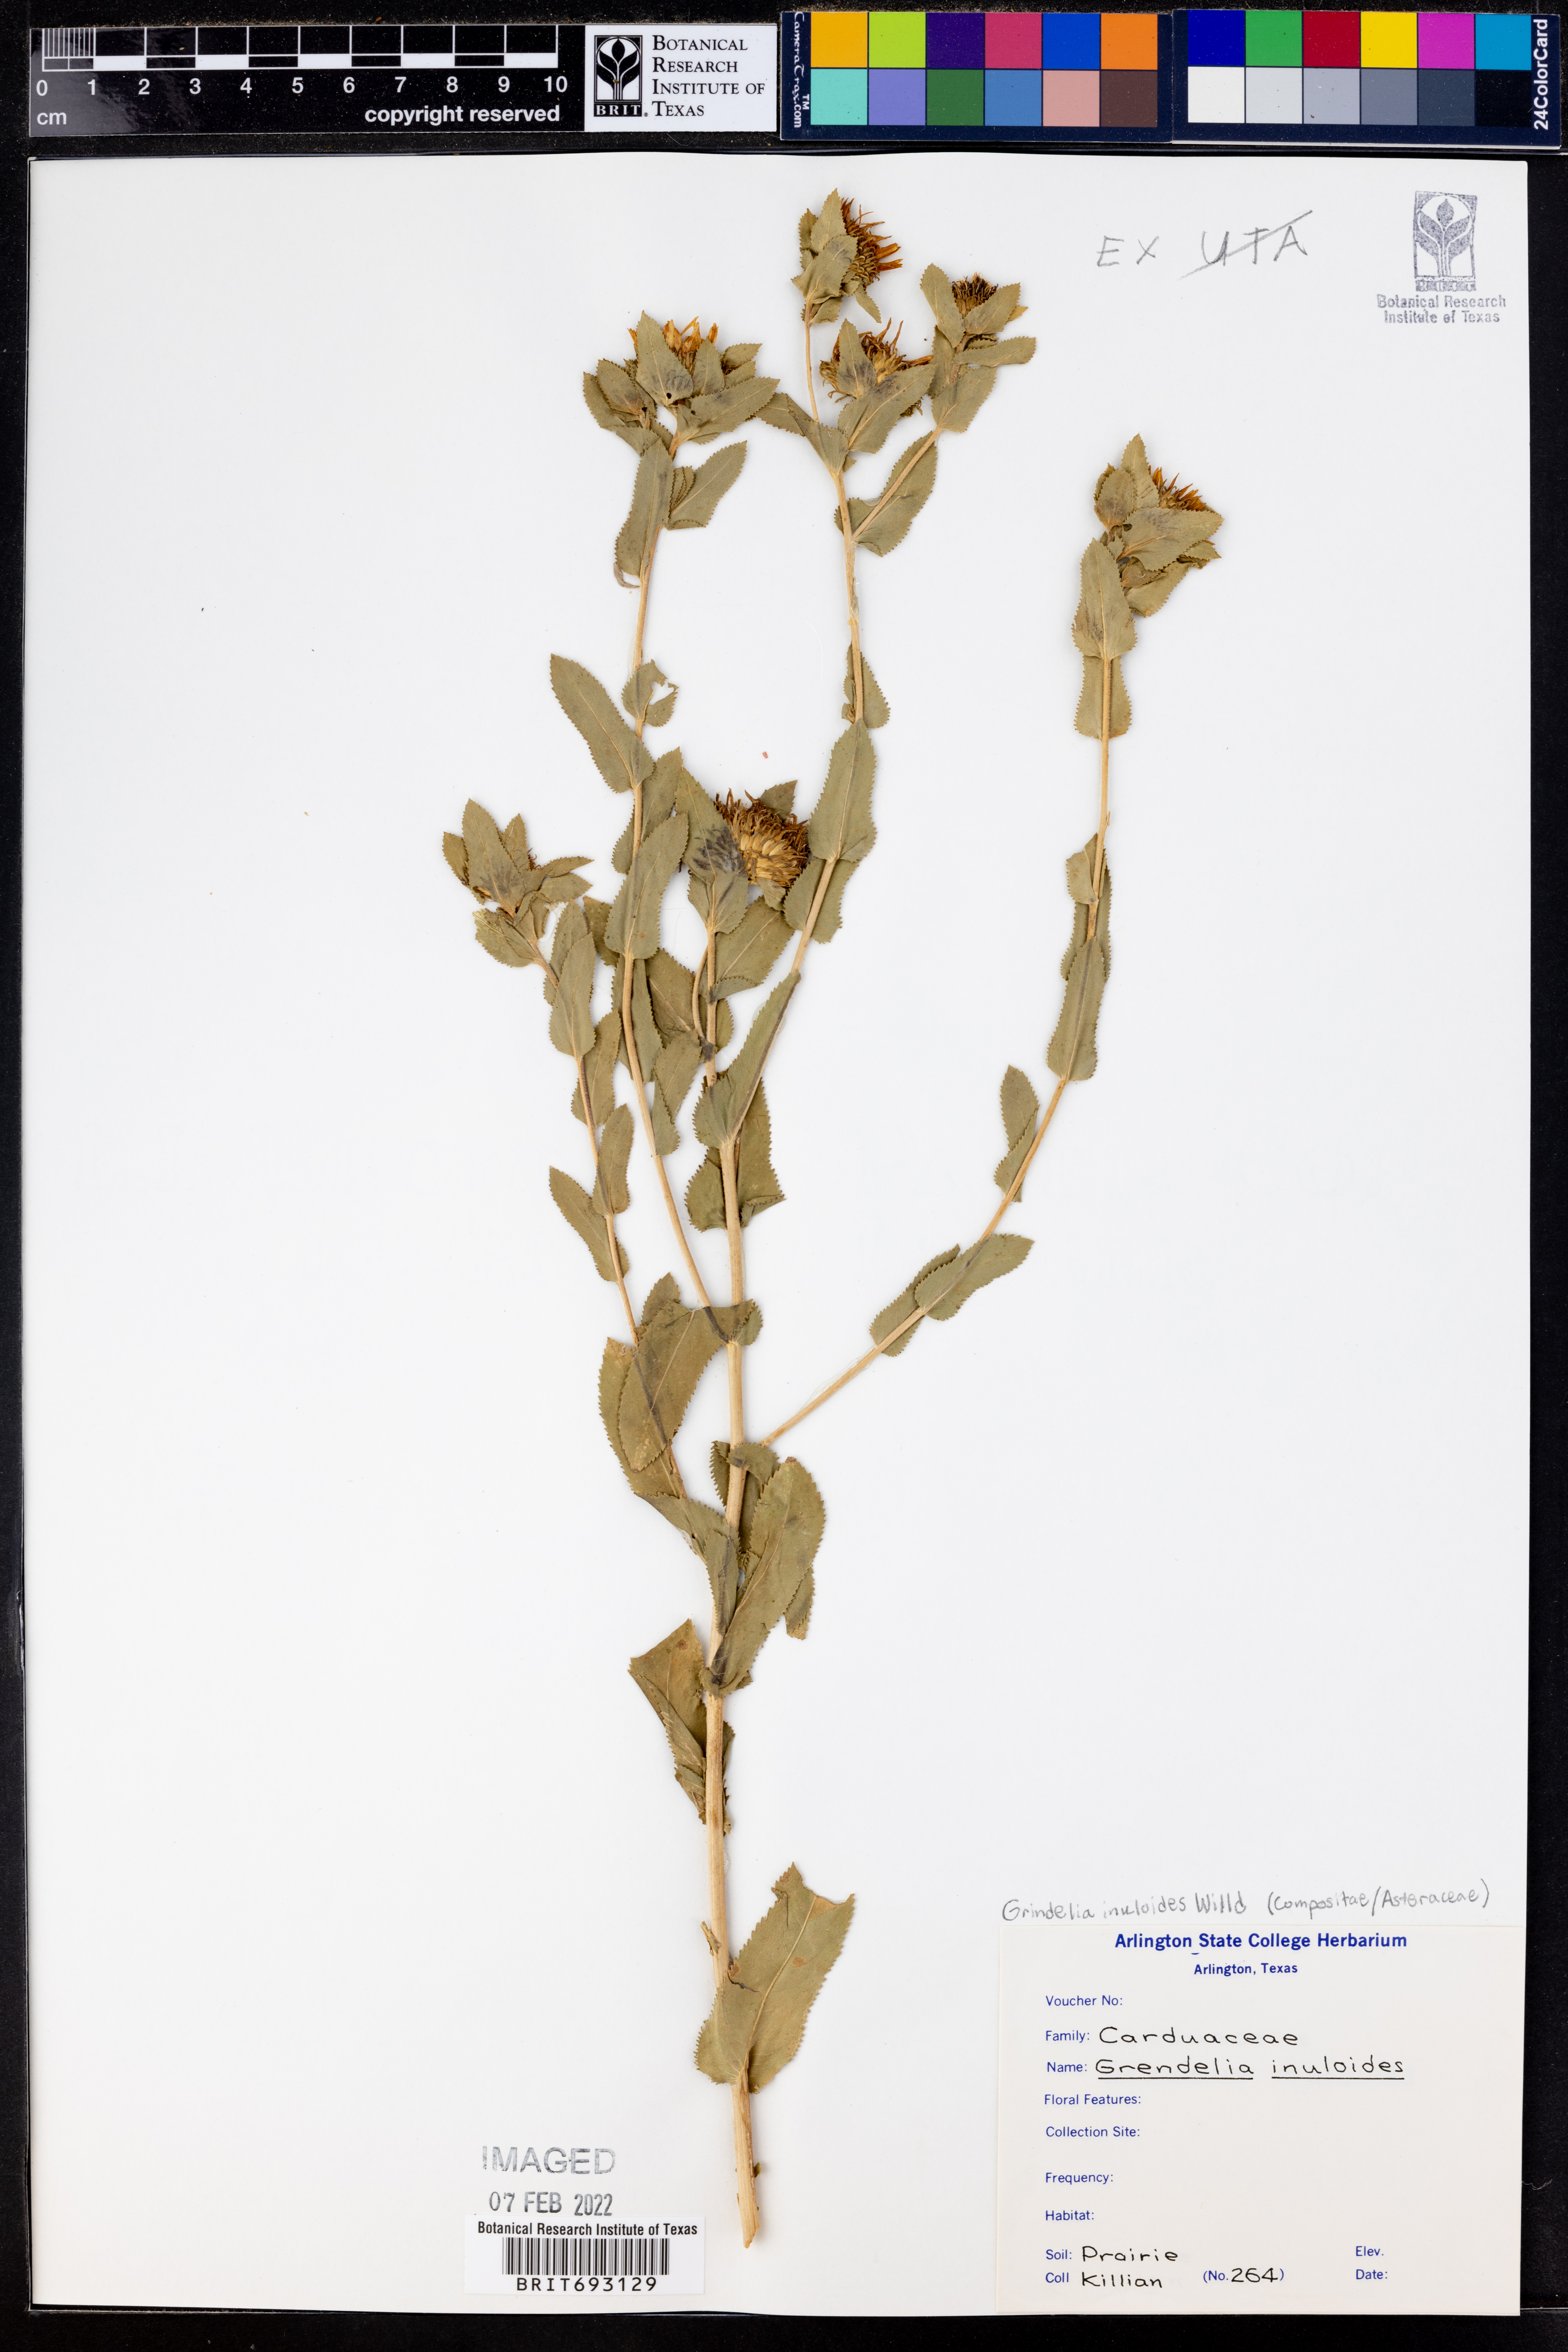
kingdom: Plantae
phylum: Tracheophyta
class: Magnoliopsida
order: Asterales
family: Asteraceae
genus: Grindelia
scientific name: Grindelia inuloides
